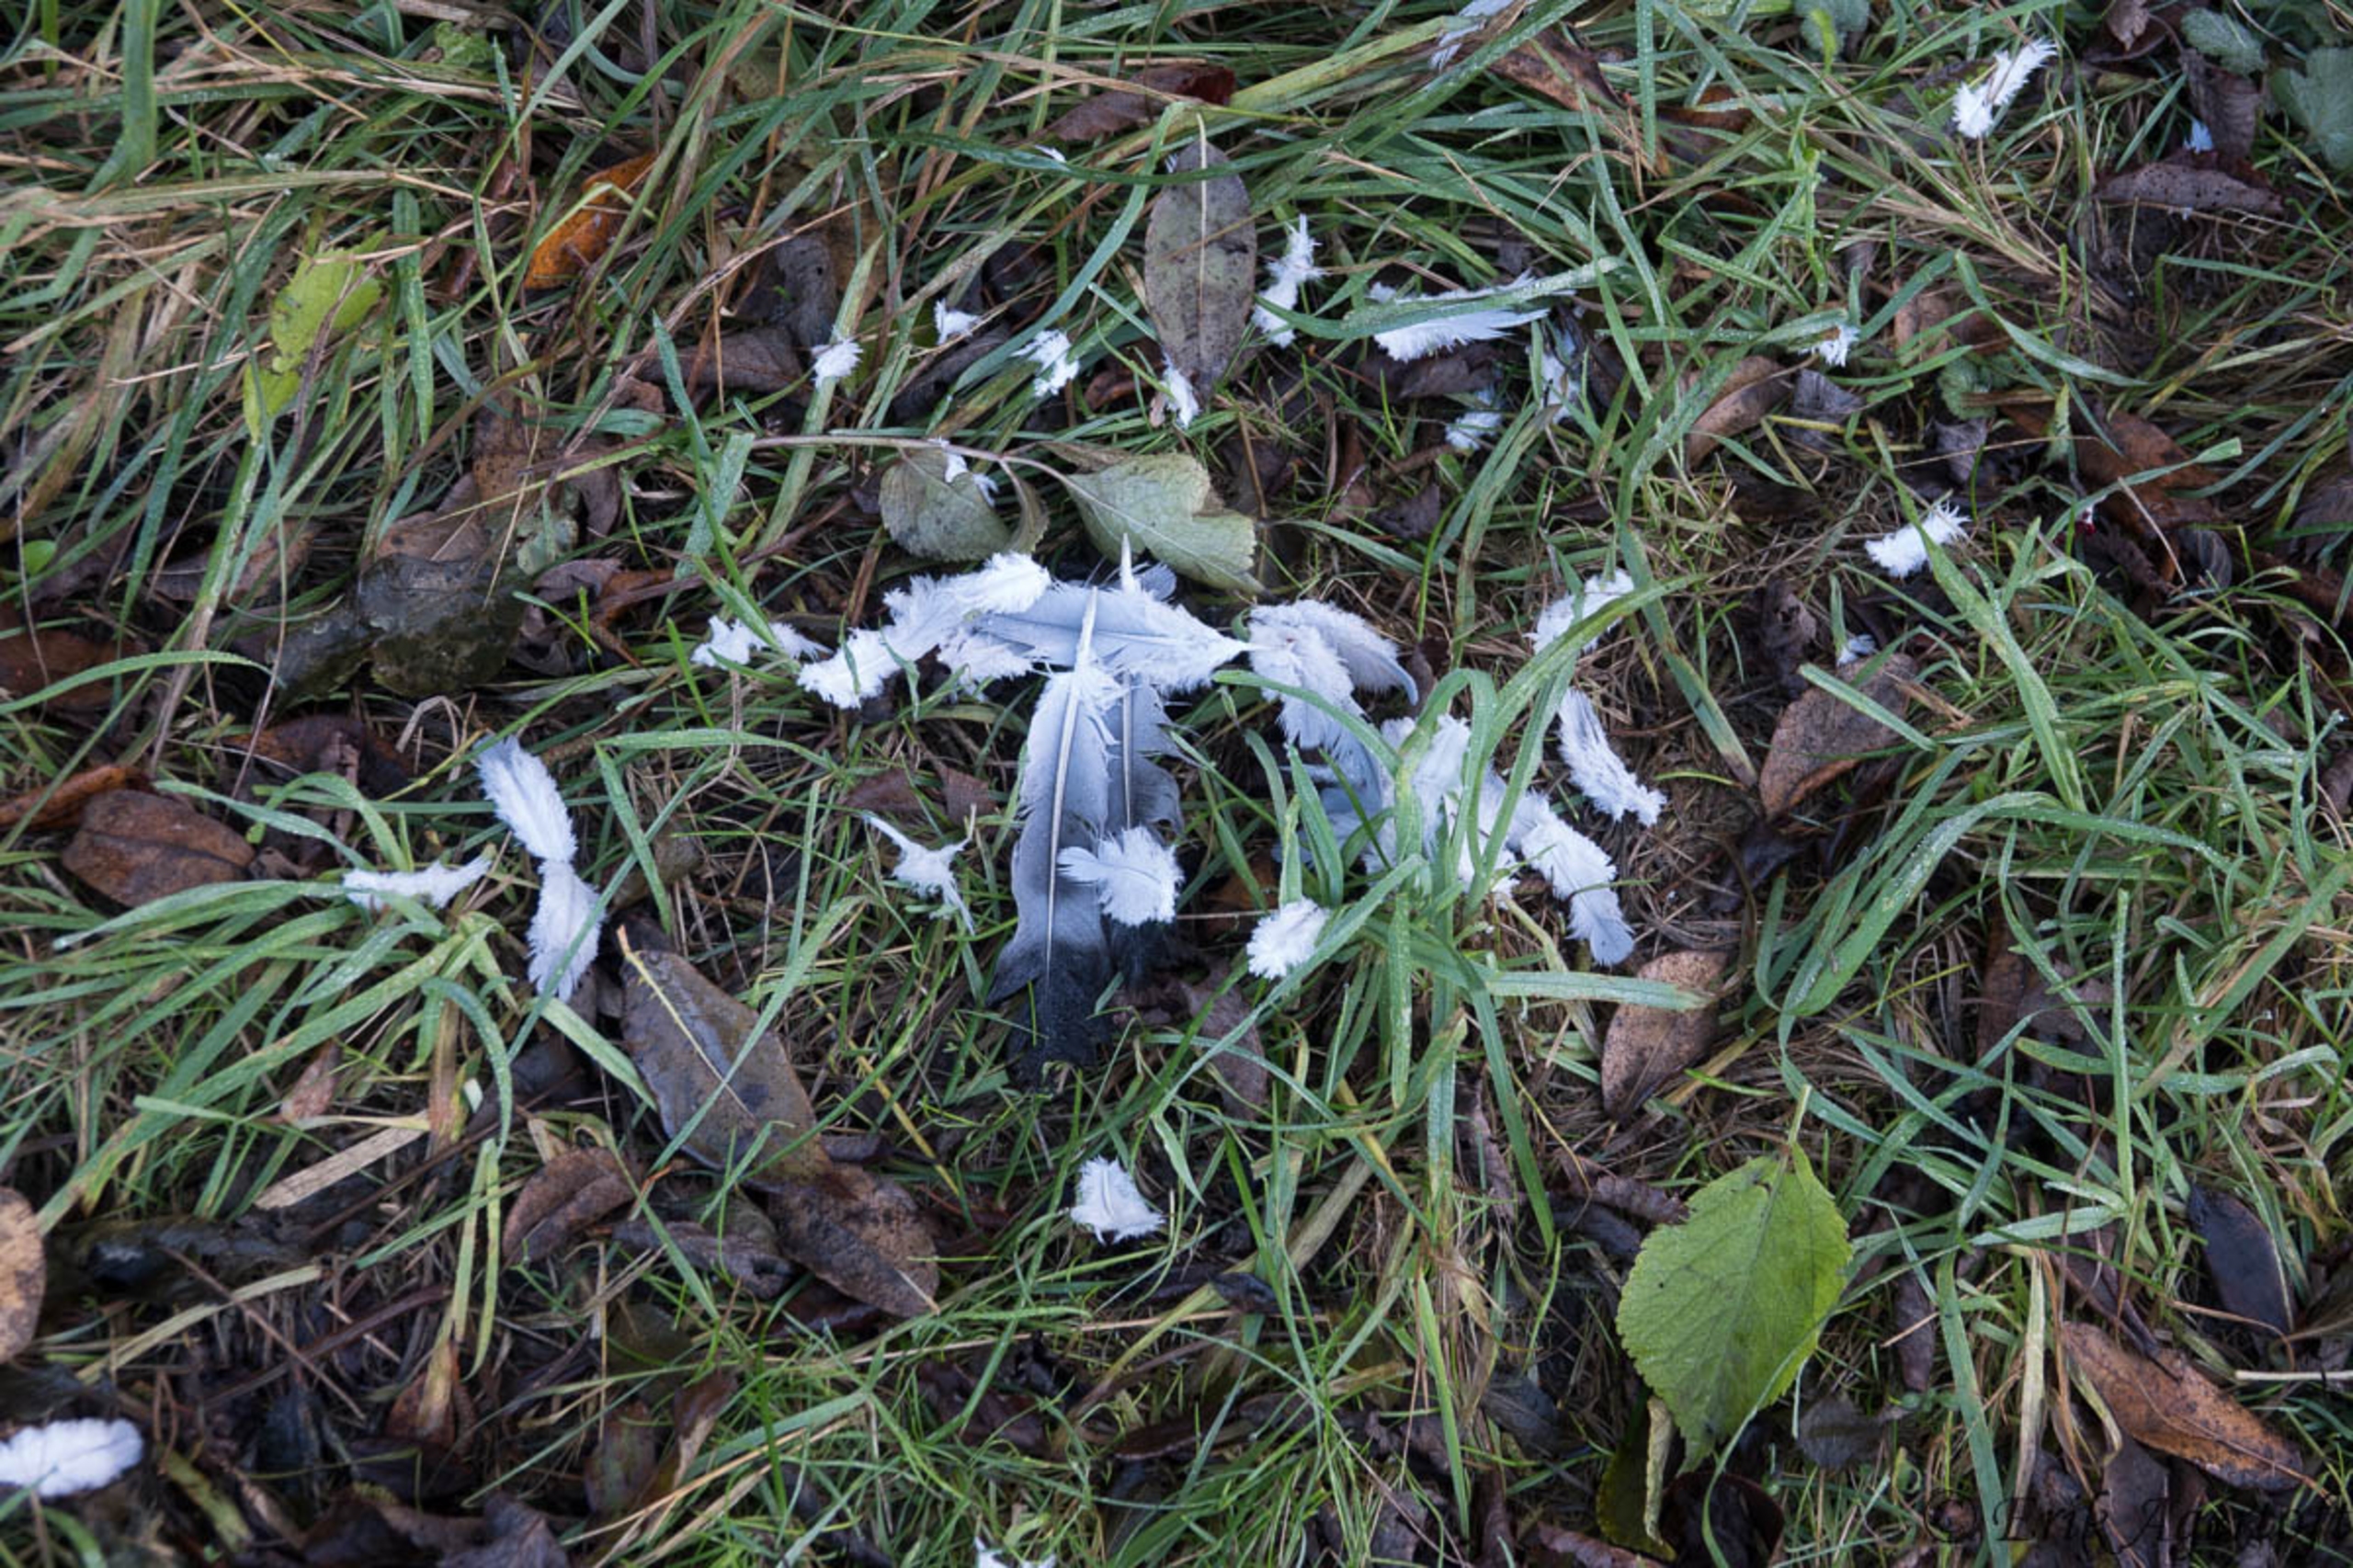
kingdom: Animalia
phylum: Chordata
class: Aves
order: Columbiformes
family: Columbidae
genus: Columba
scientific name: Columba palumbus
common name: Ringdue
